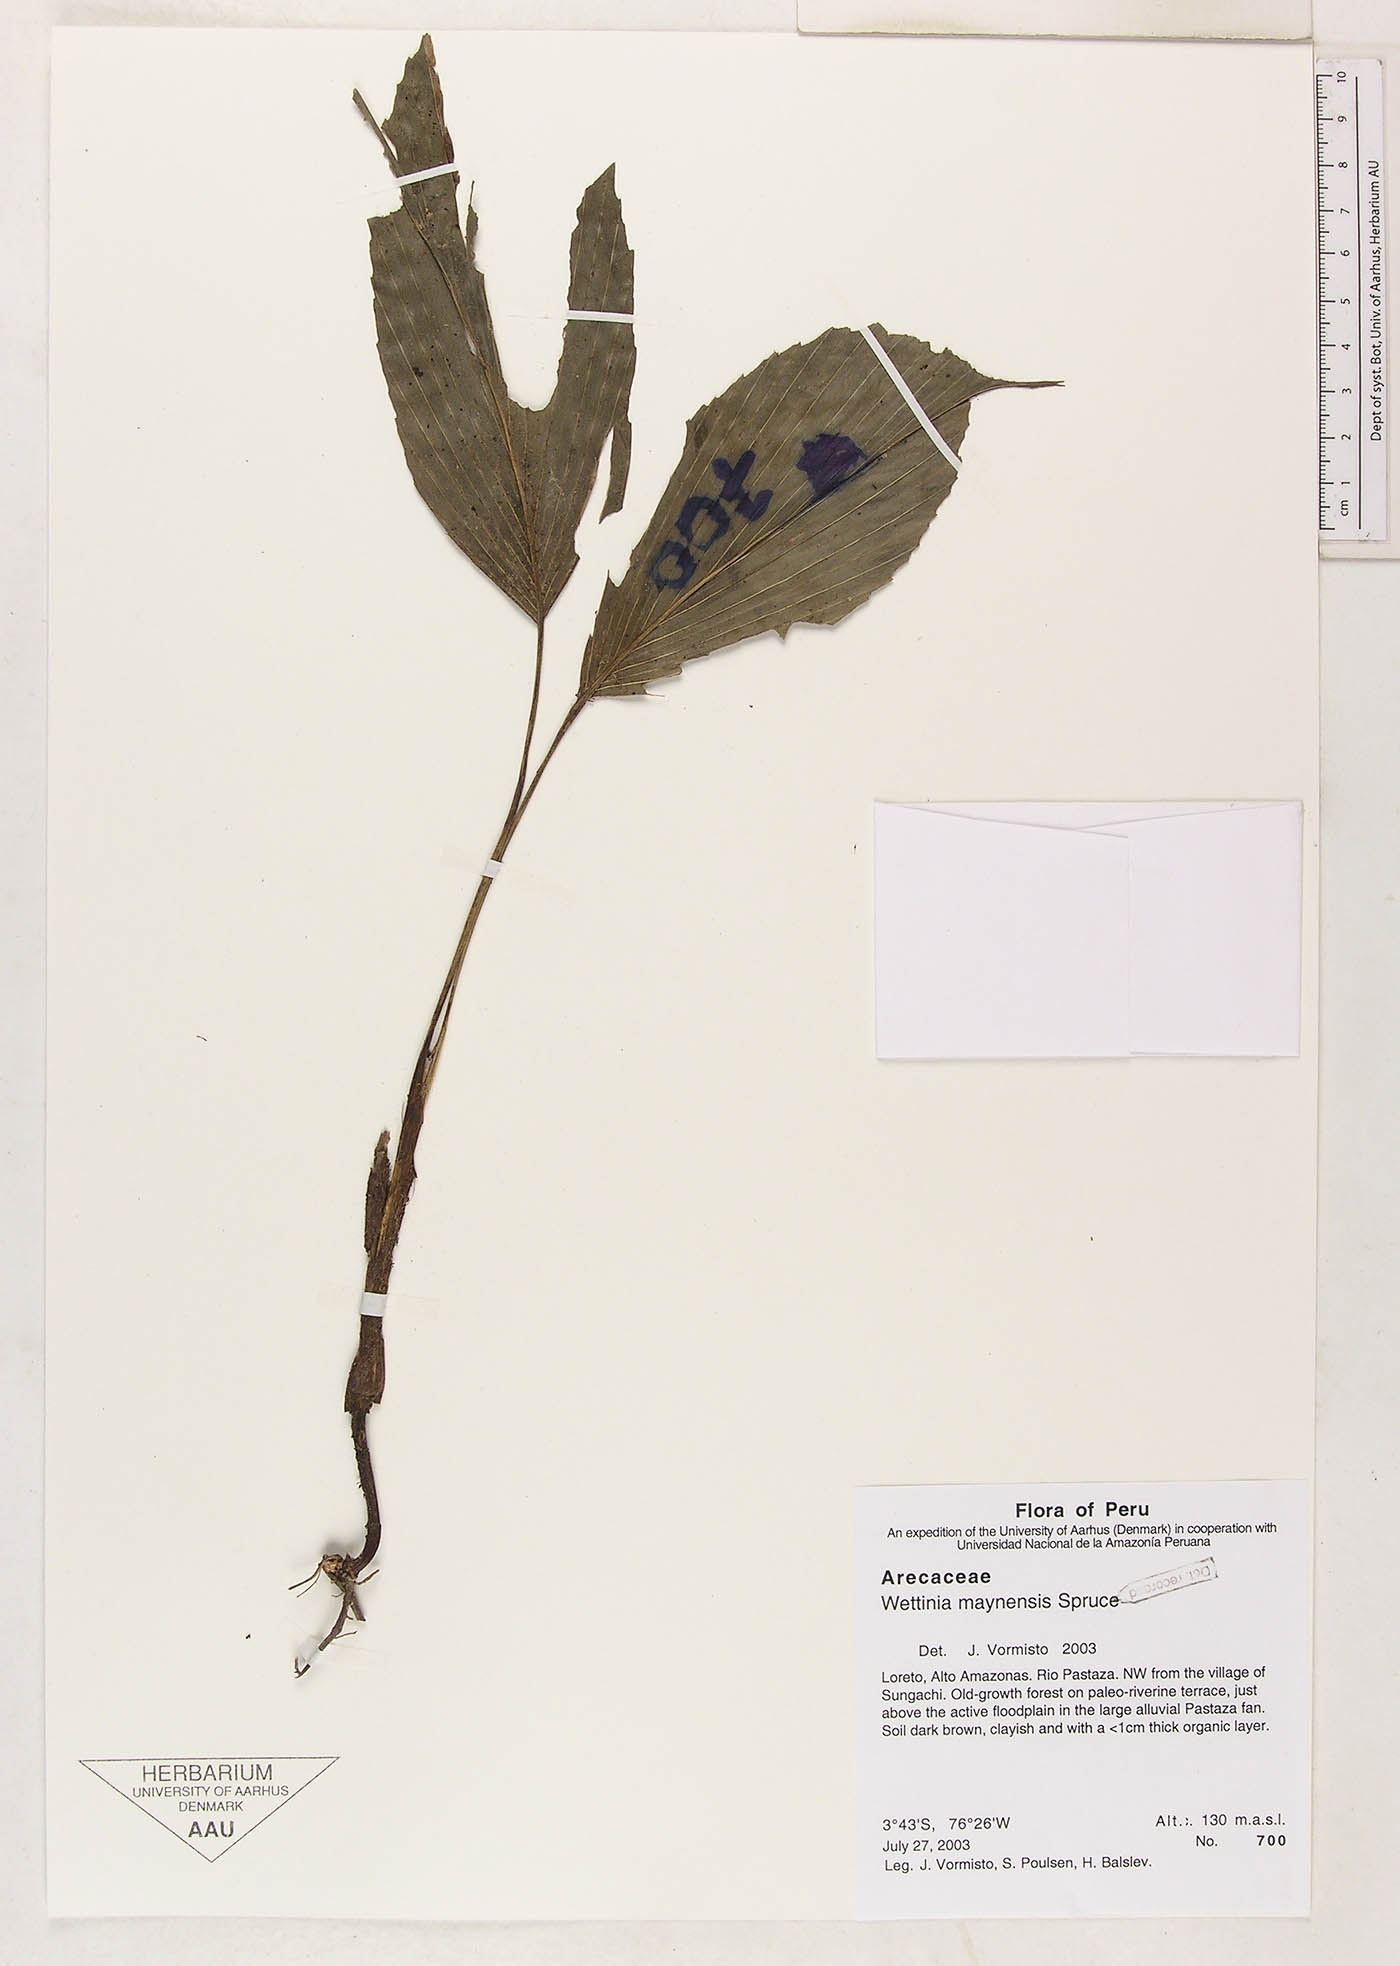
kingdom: Plantae
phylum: Tracheophyta
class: Liliopsida
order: Arecales
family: Arecaceae
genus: Wettinia
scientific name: Wettinia maynensis
